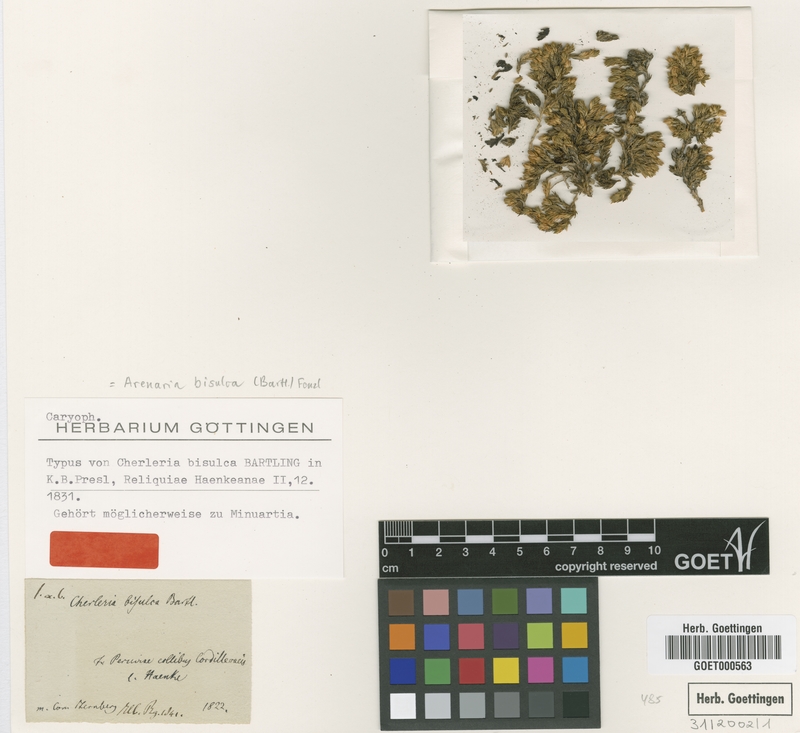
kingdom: Plantae
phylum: Tracheophyta
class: Magnoliopsida
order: Caryophyllales
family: Caryophyllaceae
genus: Arenaria
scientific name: Arenaria bisulca
